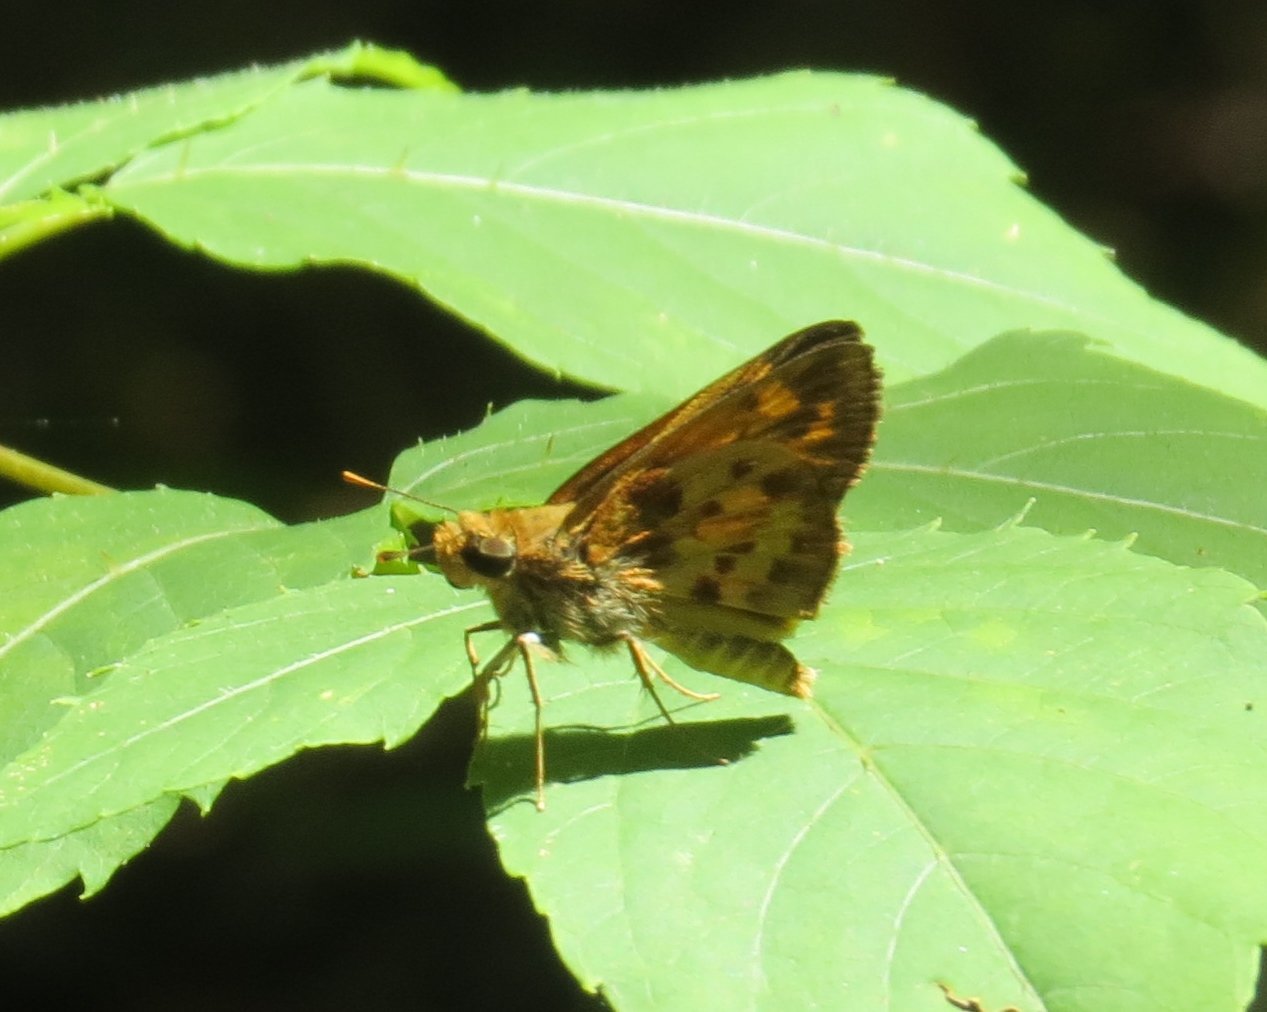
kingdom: Animalia
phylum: Arthropoda
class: Insecta
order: Lepidoptera
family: Hesperiidae
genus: Lon
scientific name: Lon zabulon
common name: Zabulon Skipper
